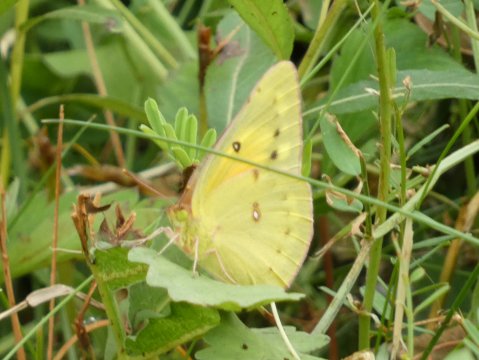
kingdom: Animalia
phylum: Arthropoda
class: Insecta
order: Lepidoptera
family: Pieridae
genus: Colias
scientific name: Colias eurytheme
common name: Orange Sulphur
